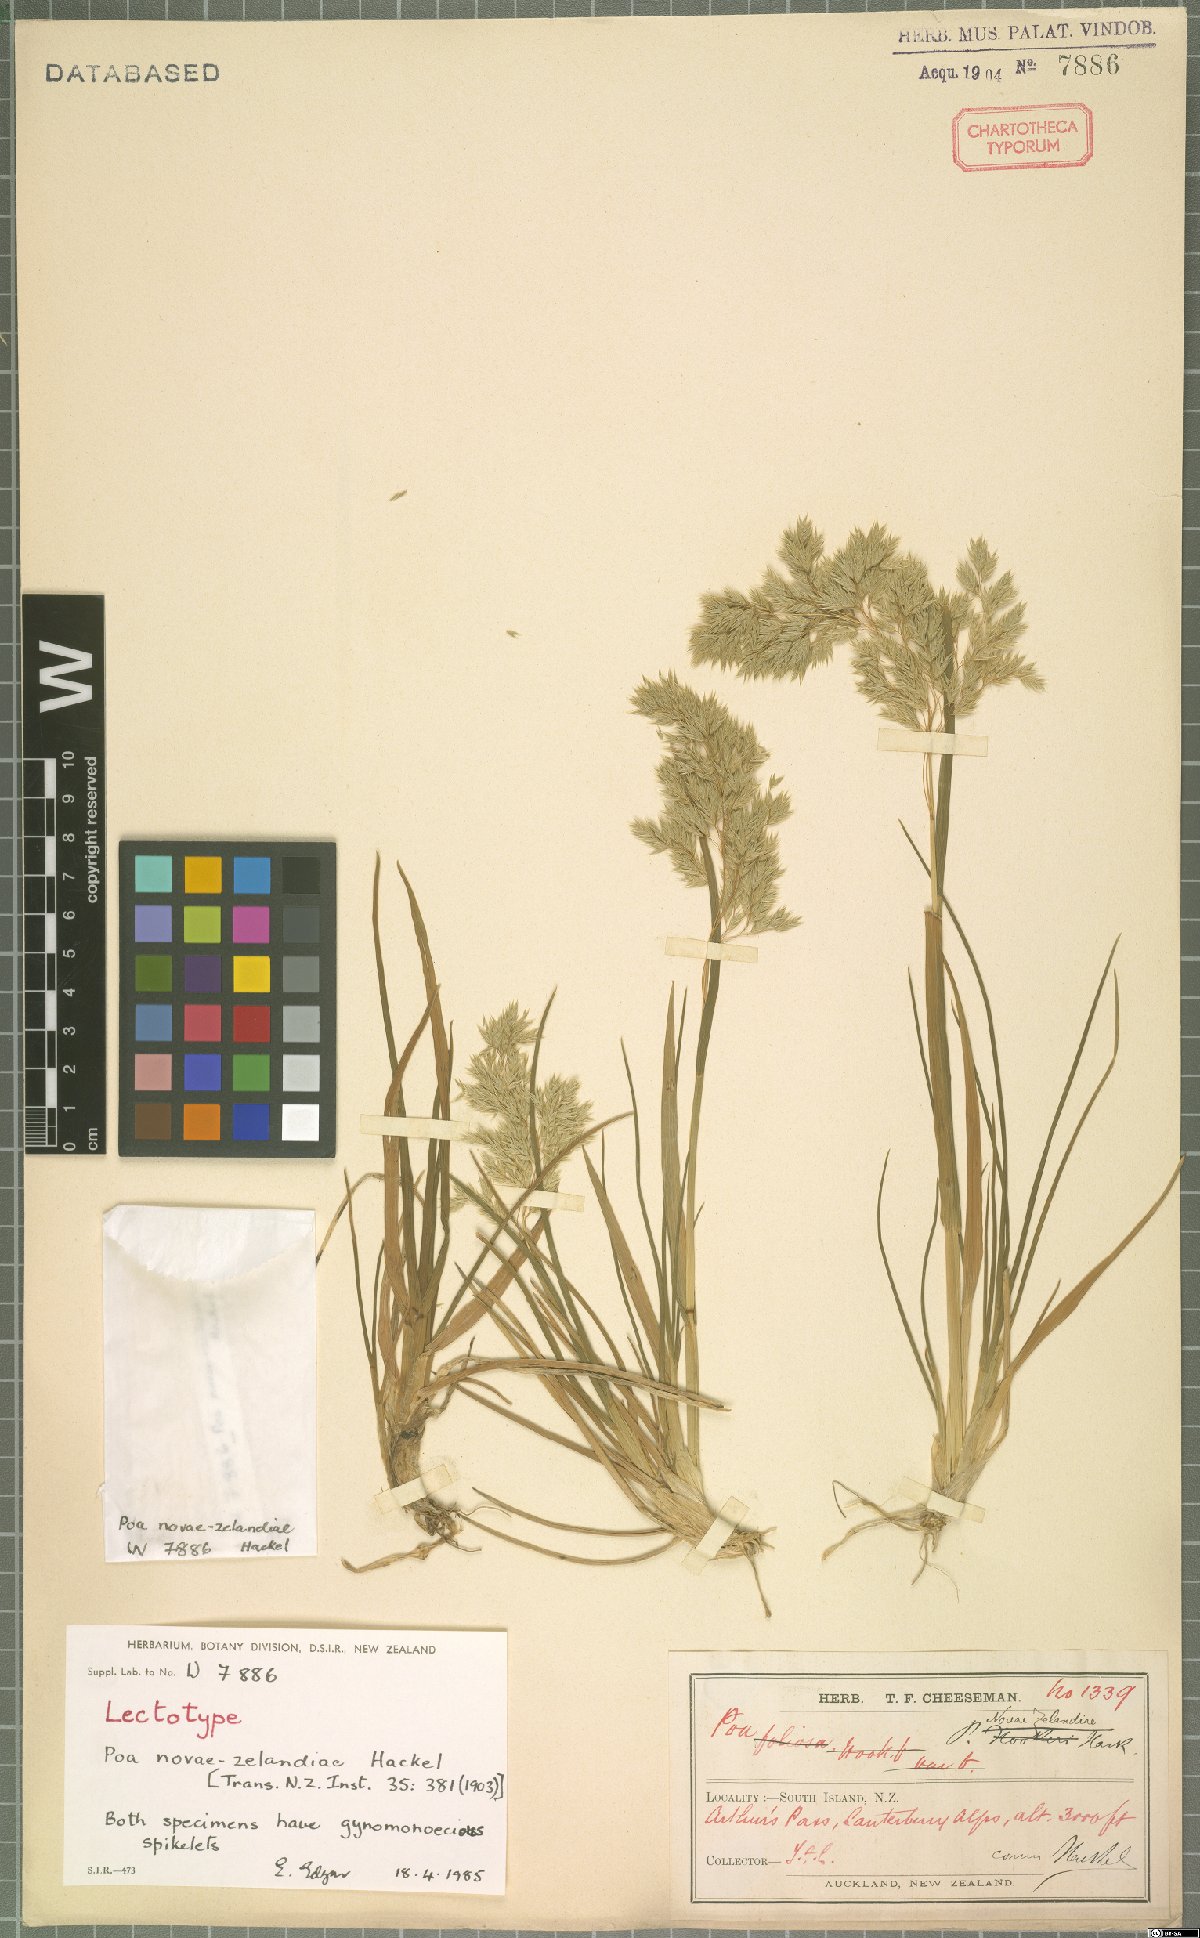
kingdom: Plantae
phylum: Tracheophyta
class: Liliopsida
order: Poales
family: Poaceae
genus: Poa
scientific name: Poa novae-zelandiae
